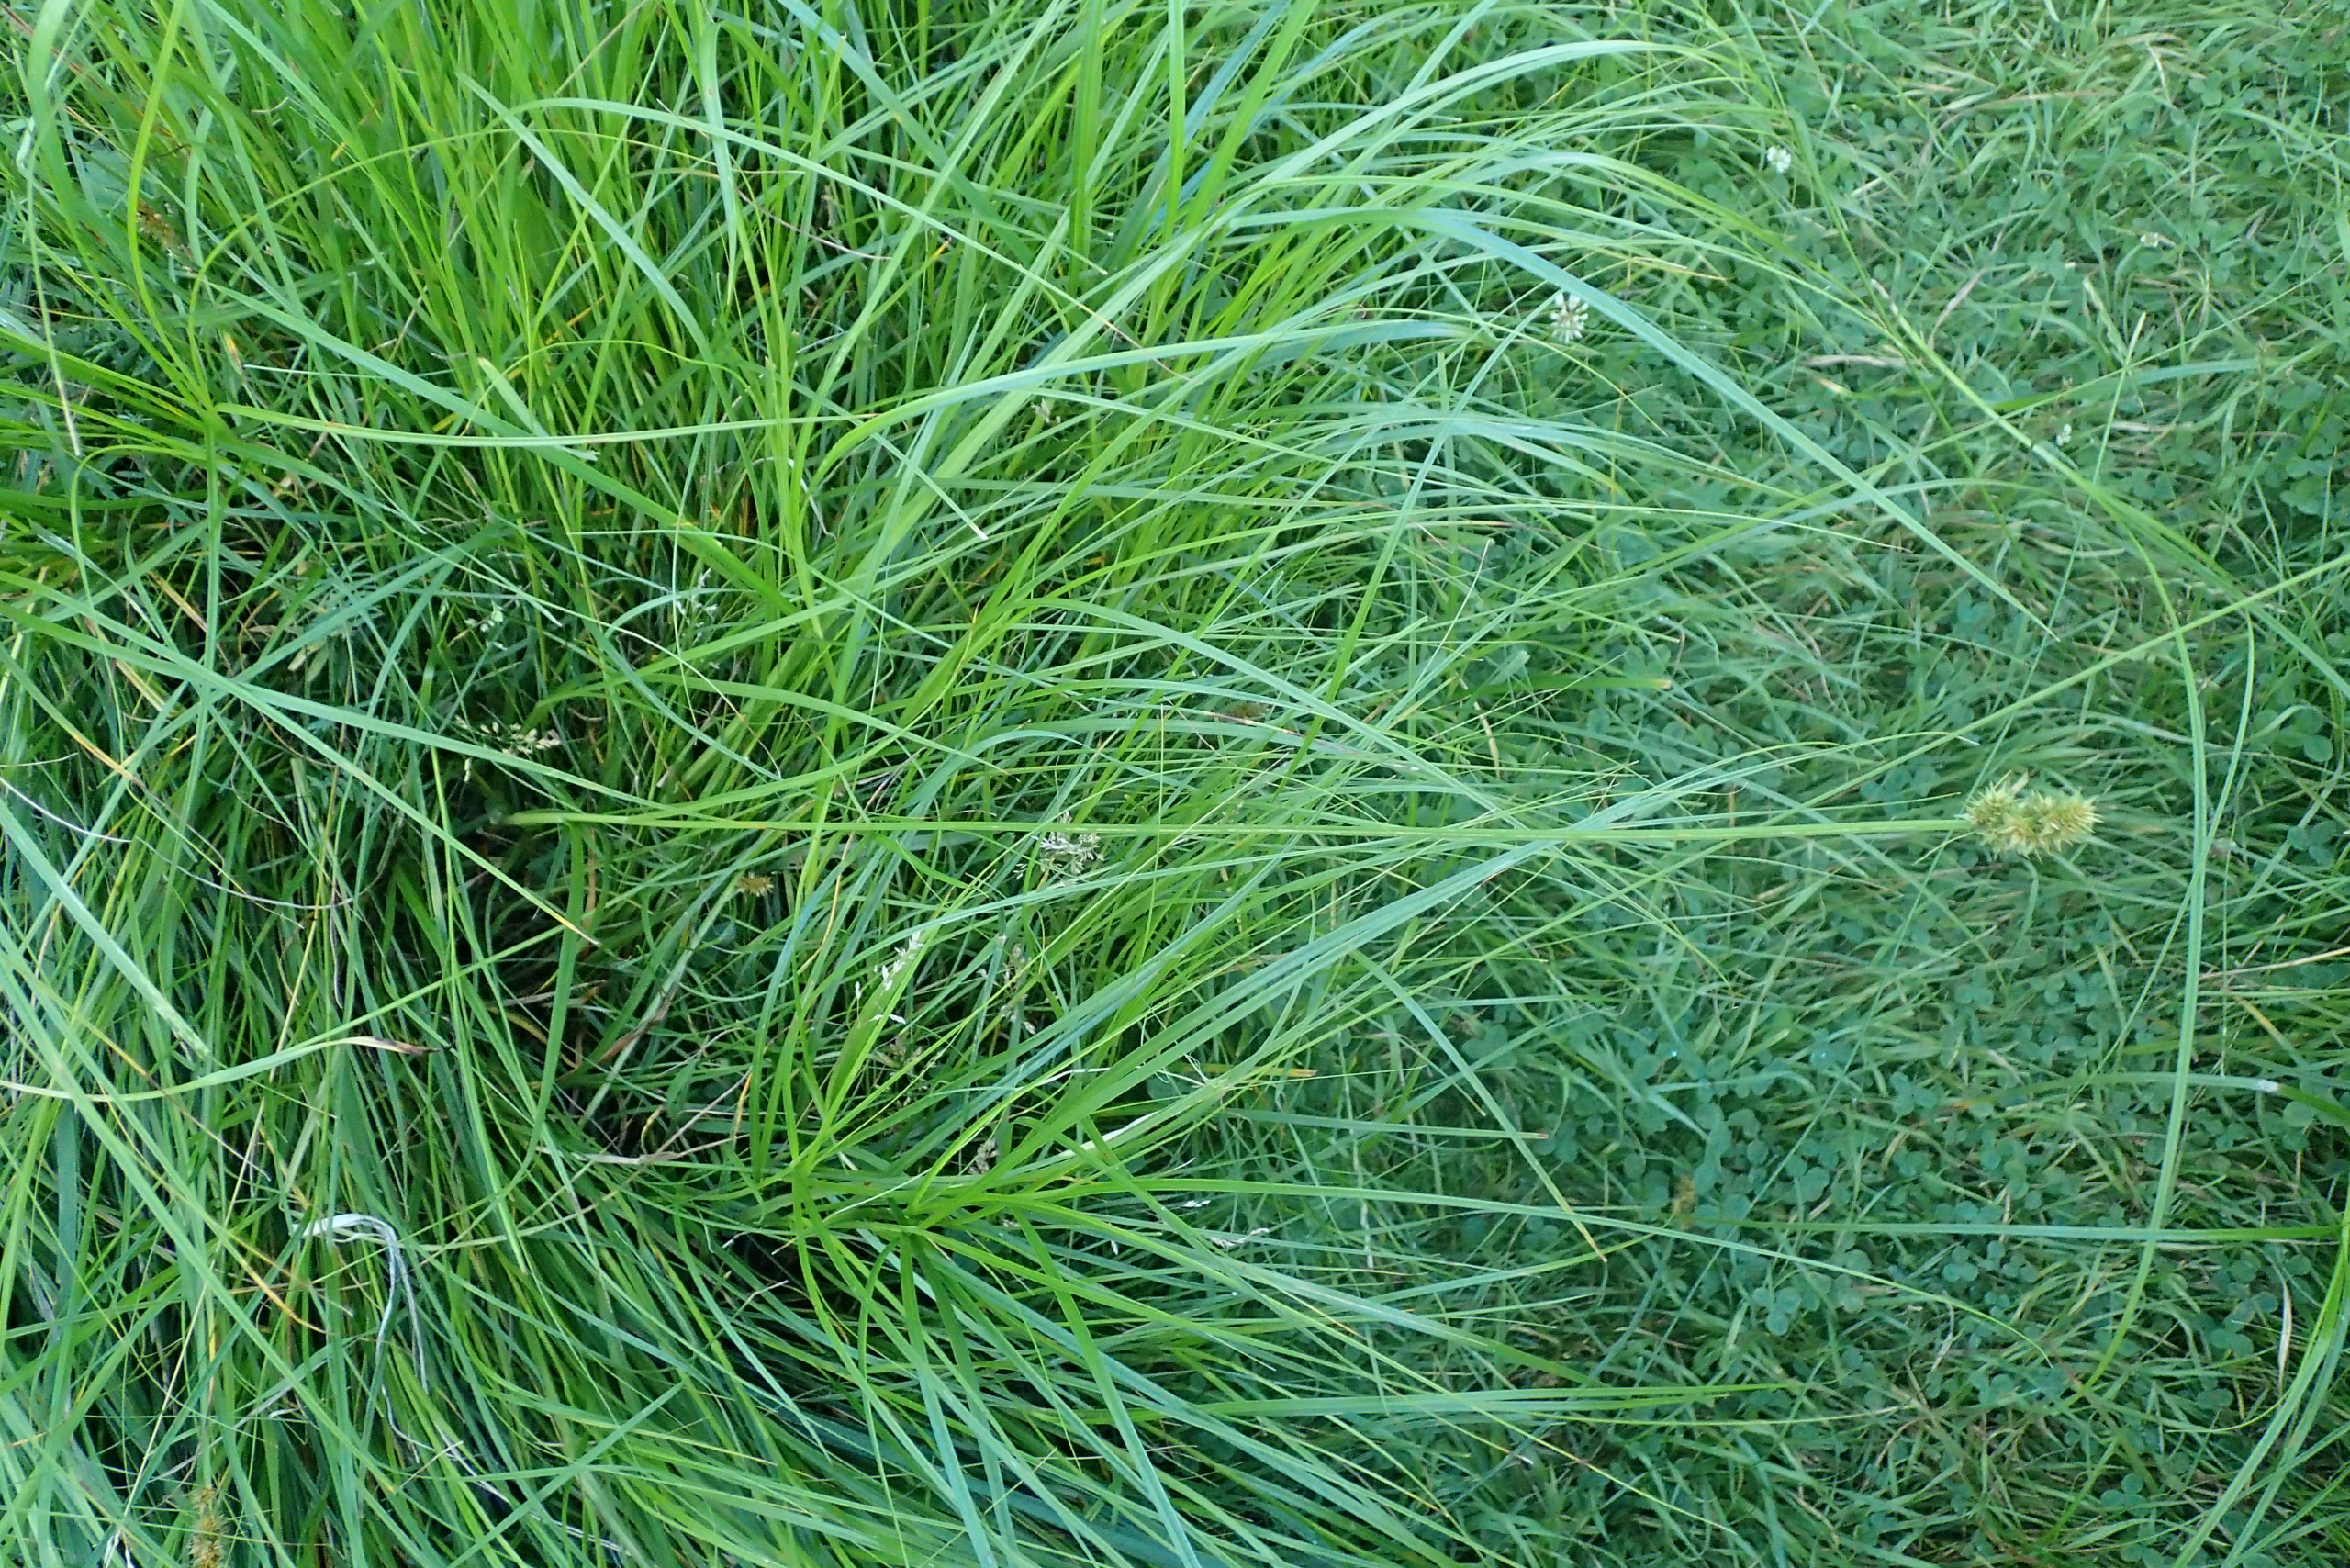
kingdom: Plantae
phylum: Tracheophyta
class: Liliopsida
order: Poales
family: Cyperaceae
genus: Carex
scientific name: Carex otrubae
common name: Sylt-star
